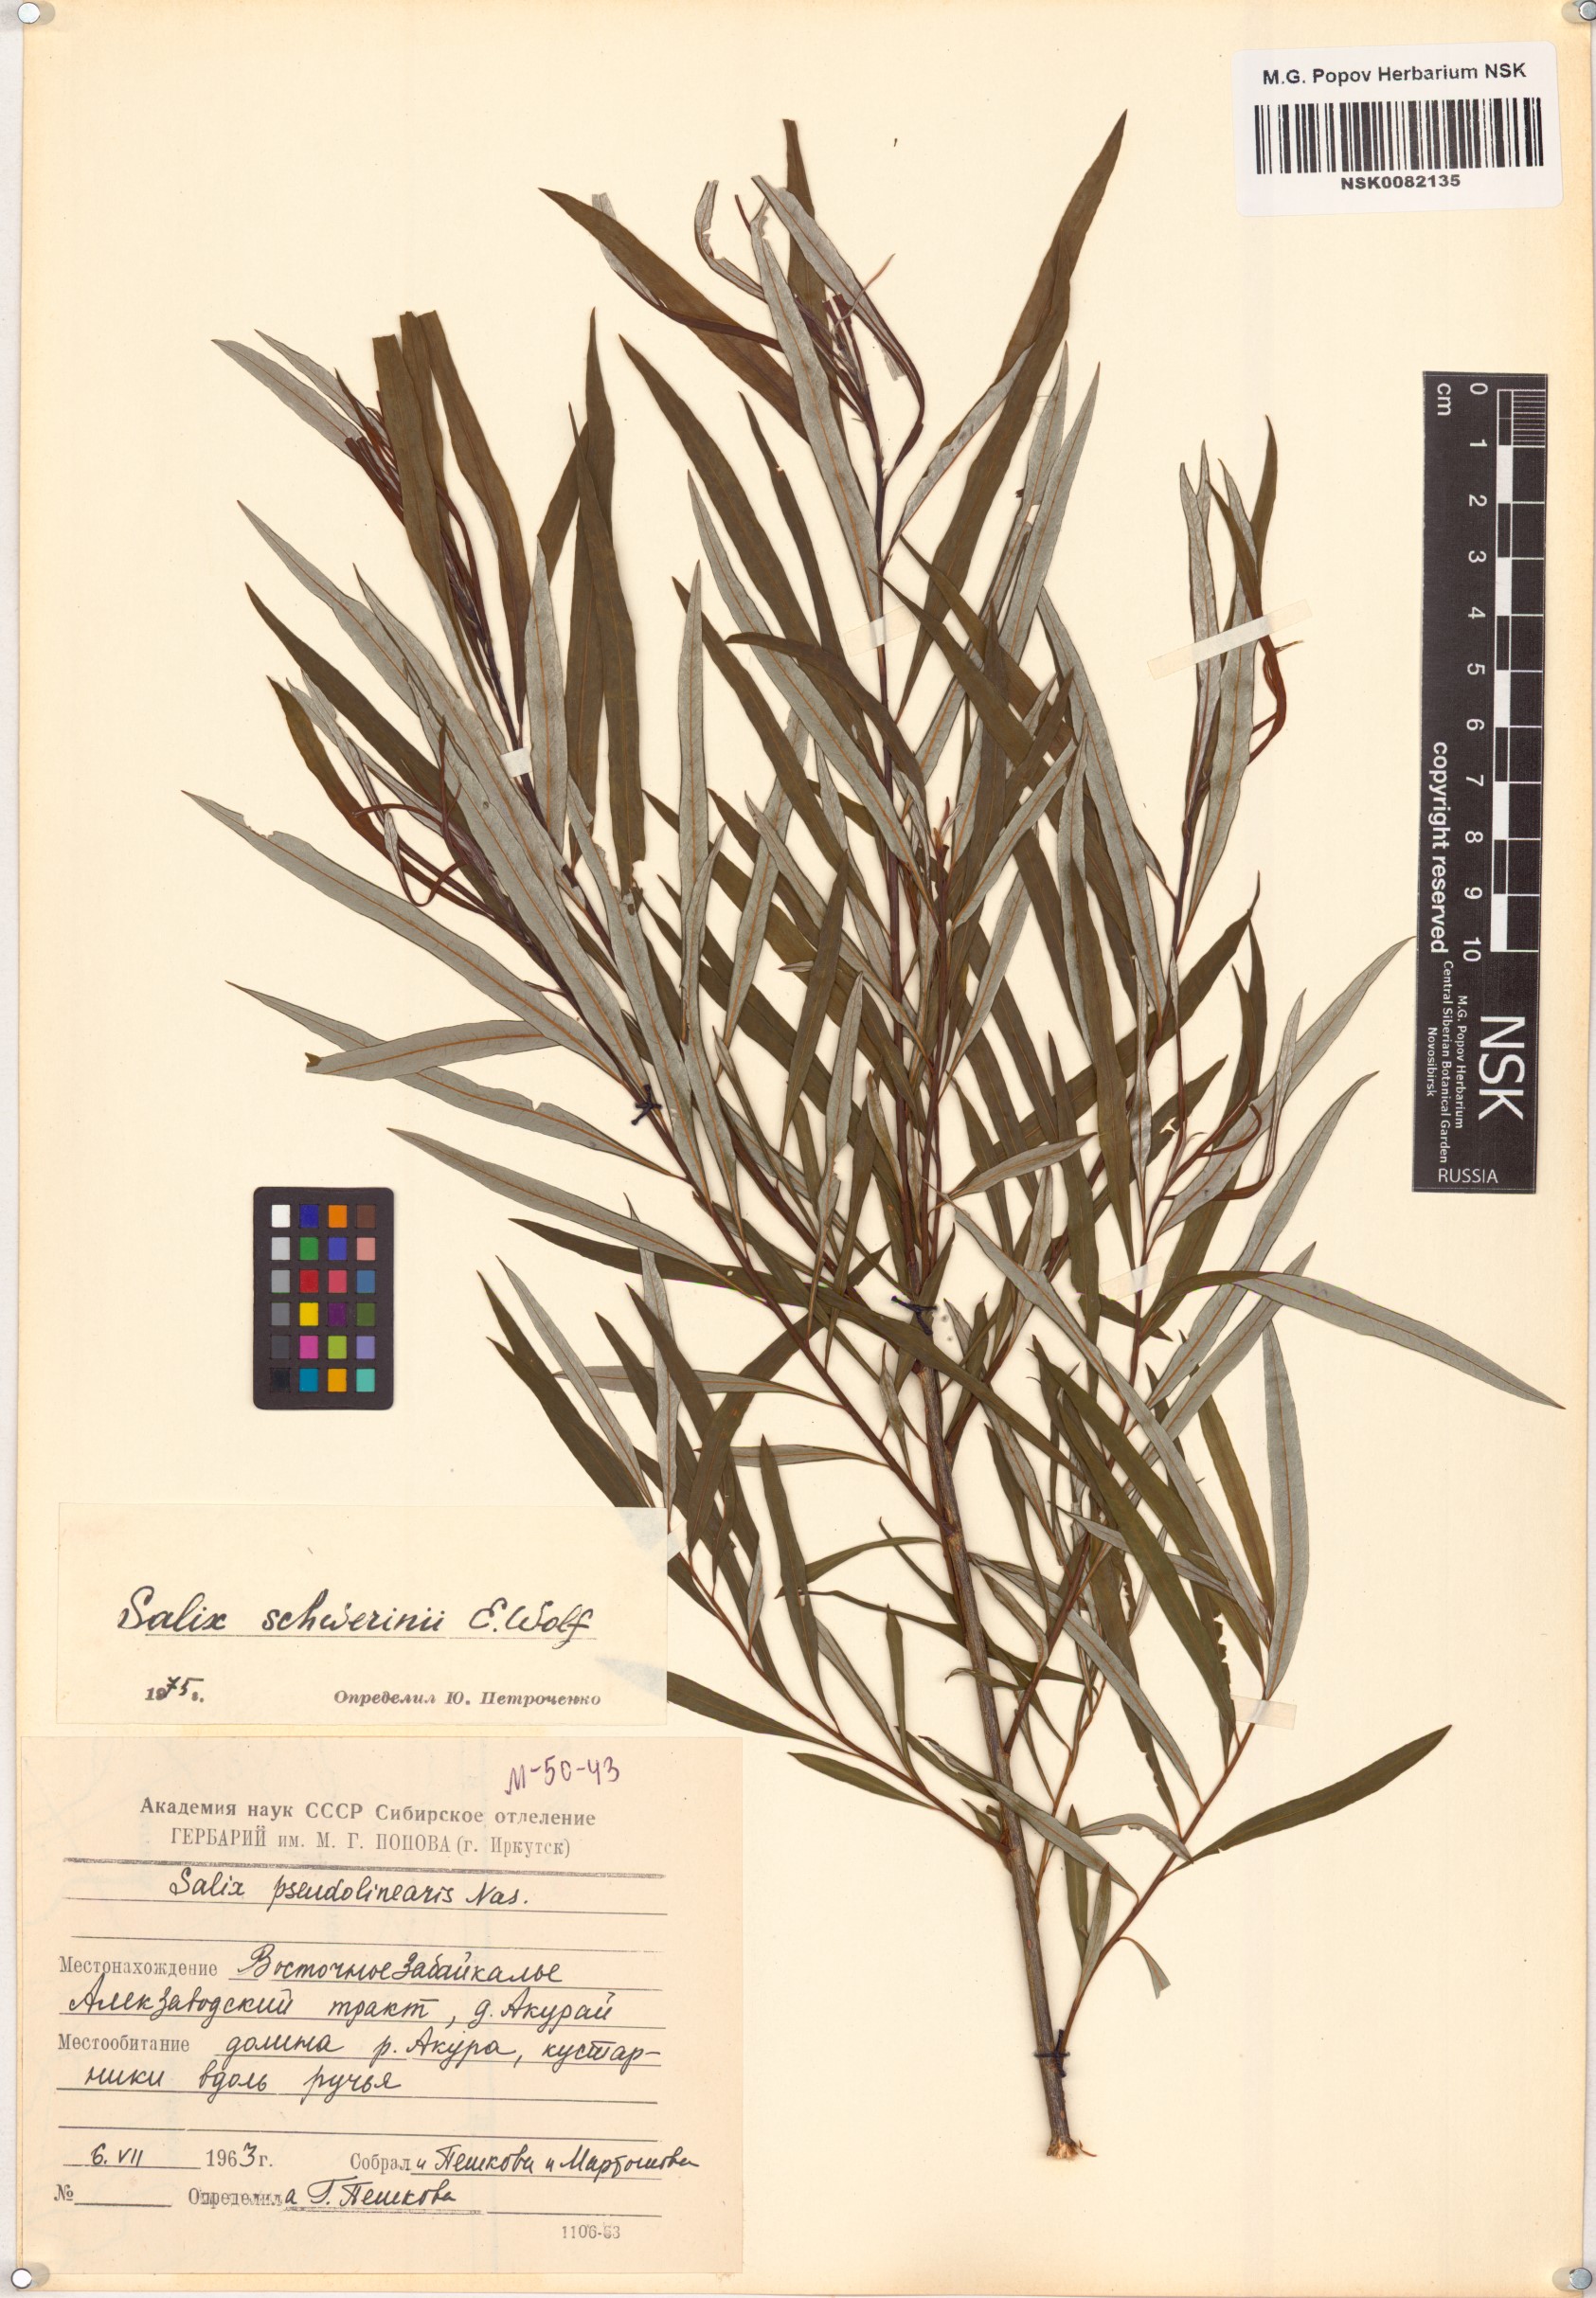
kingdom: Plantae
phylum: Tracheophyta
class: Magnoliopsida
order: Malpighiales
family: Salicaceae
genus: Salix
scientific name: Salix schwerinii
